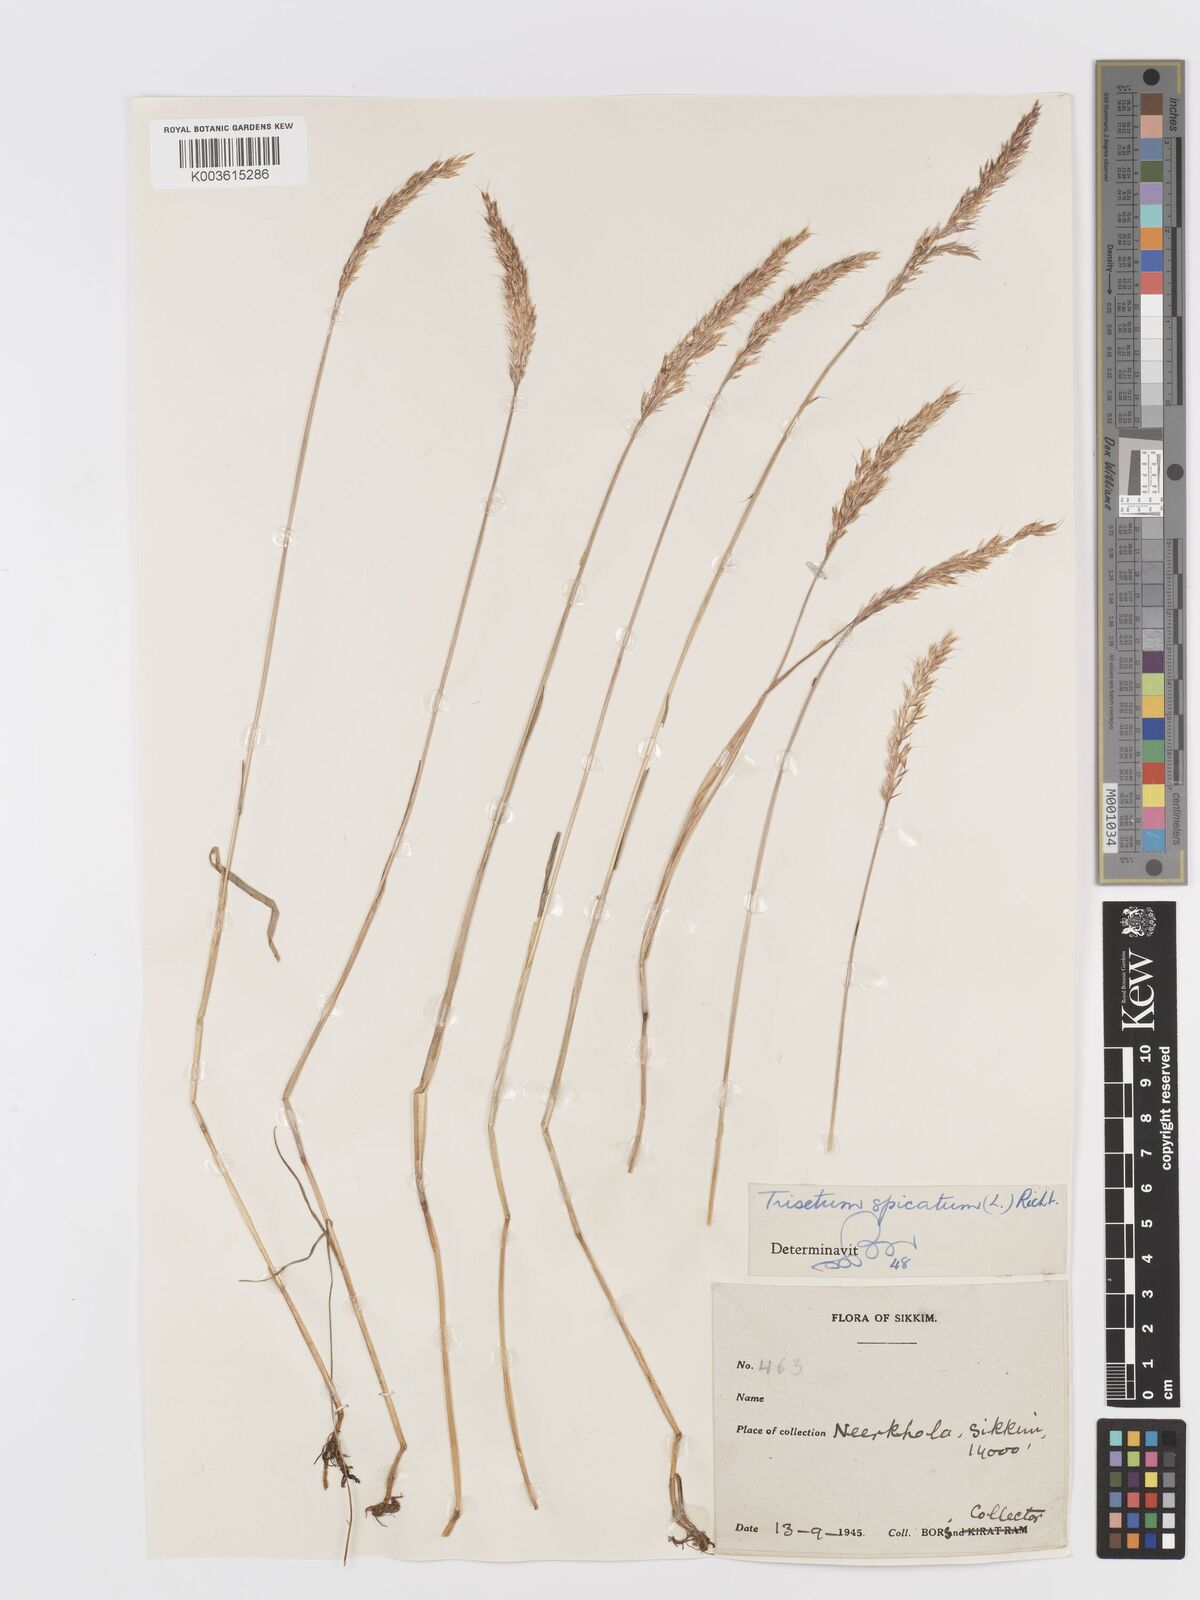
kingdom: Plantae
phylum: Tracheophyta
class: Liliopsida
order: Poales
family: Poaceae
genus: Koeleria
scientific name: Koeleria spicata
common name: Mountain trisetum
